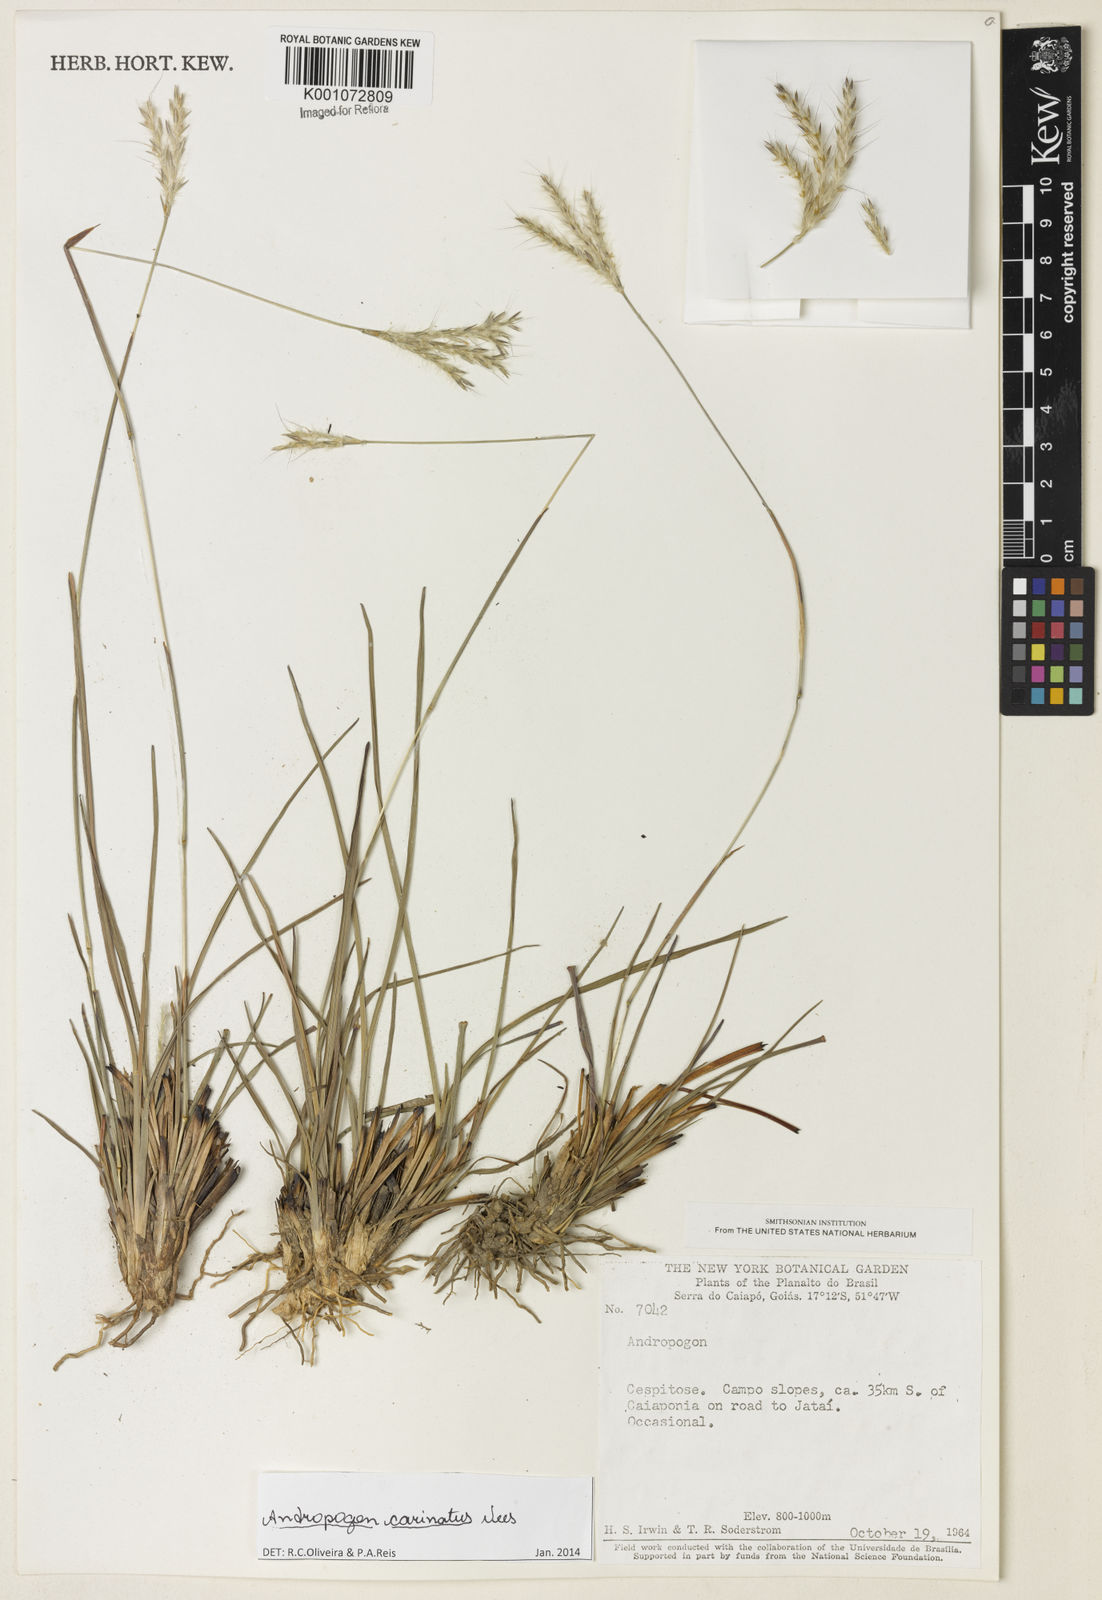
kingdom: Plantae
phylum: Tracheophyta
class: Liliopsida
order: Poales
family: Poaceae
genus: Andropogon
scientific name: Andropogon carinatus
